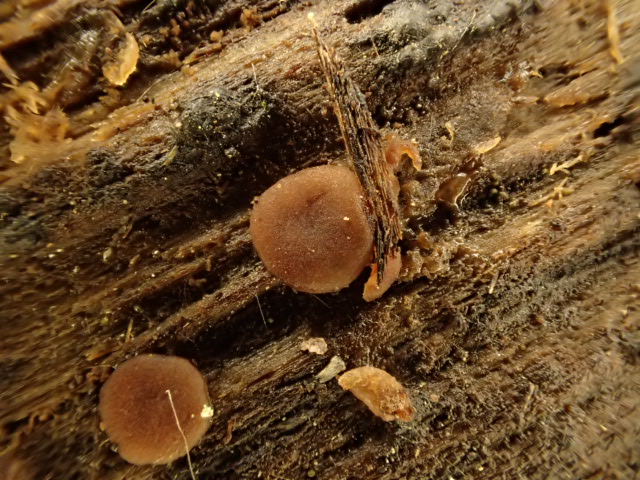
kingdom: Fungi
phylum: Ascomycota
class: Pezizomycetes
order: Pezizales
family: Pezizaceae
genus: Adelphella
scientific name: Adelphella babingtonii
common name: almindelig bækbæger
